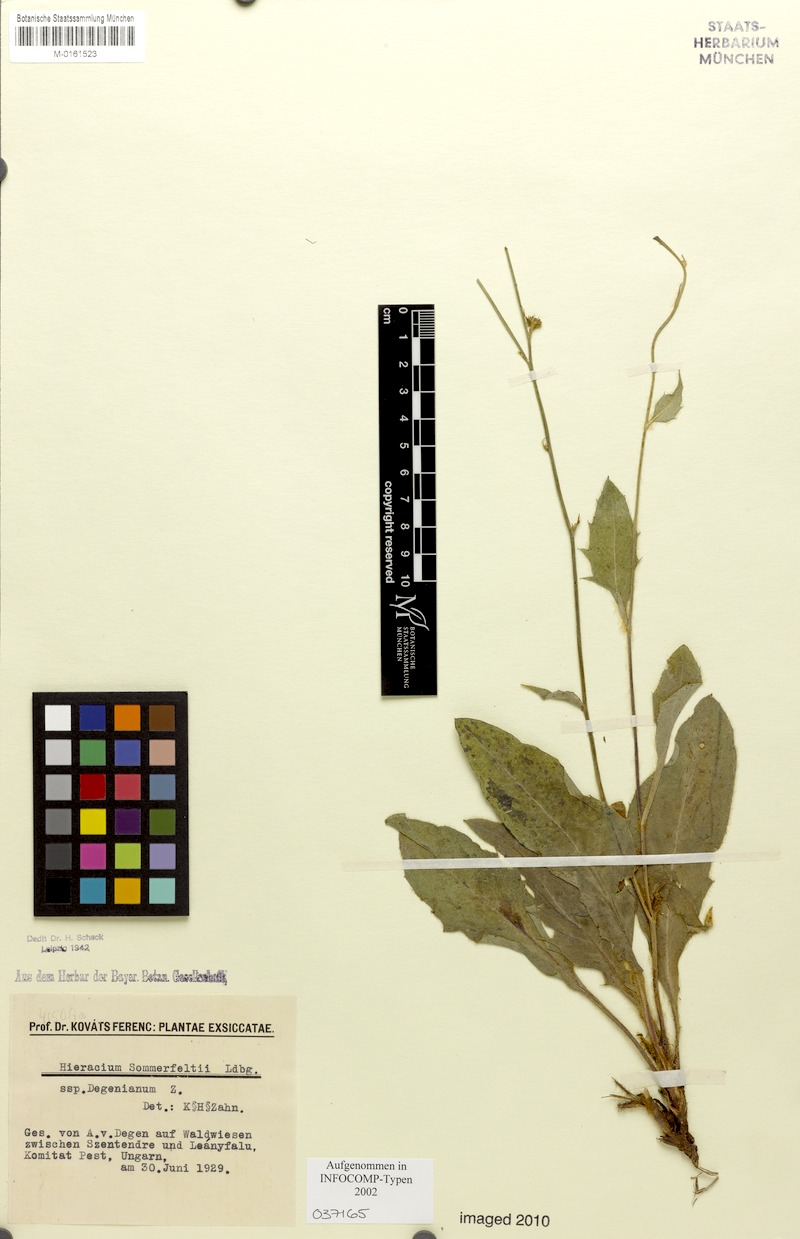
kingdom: Plantae
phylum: Tracheophyta
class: Magnoliopsida
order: Asterales
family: Asteraceae
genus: Hieracium
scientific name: Hieracium sommerfeltii
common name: Sommerfelt's hawkweed
